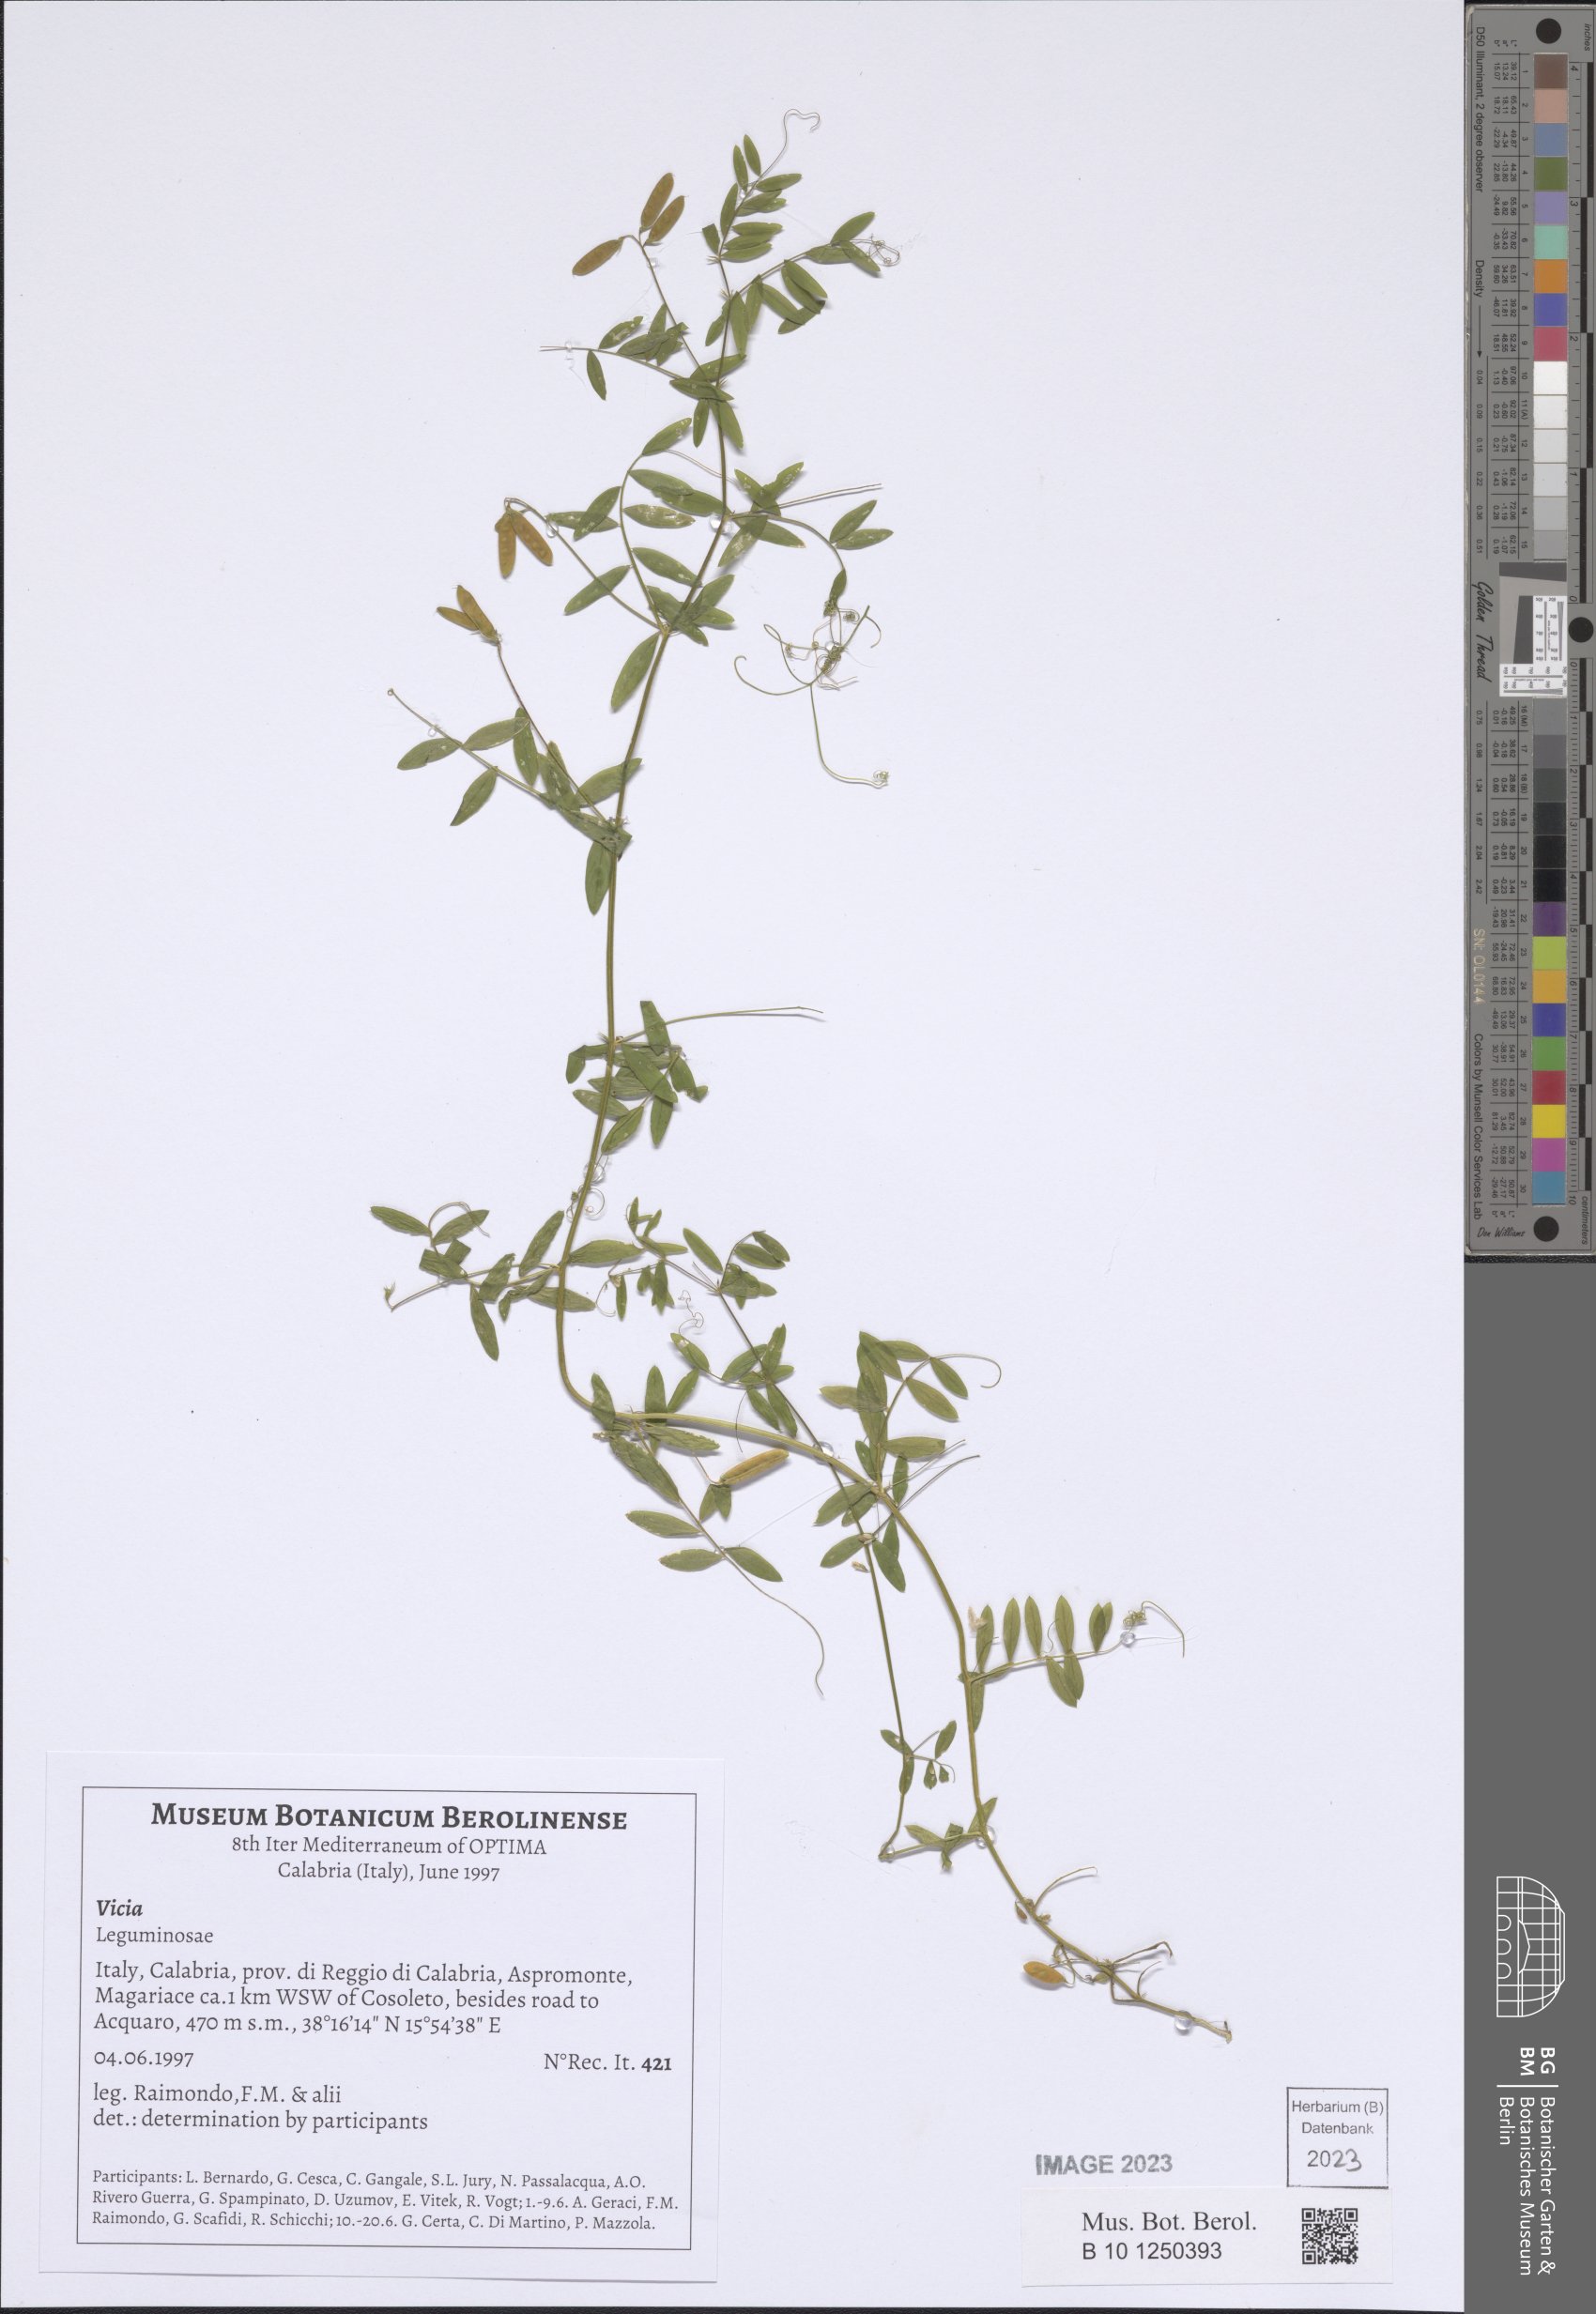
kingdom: Plantae
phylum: Tracheophyta
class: Magnoliopsida
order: Fabales
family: Fabaceae
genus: Vicia
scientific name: Vicia
